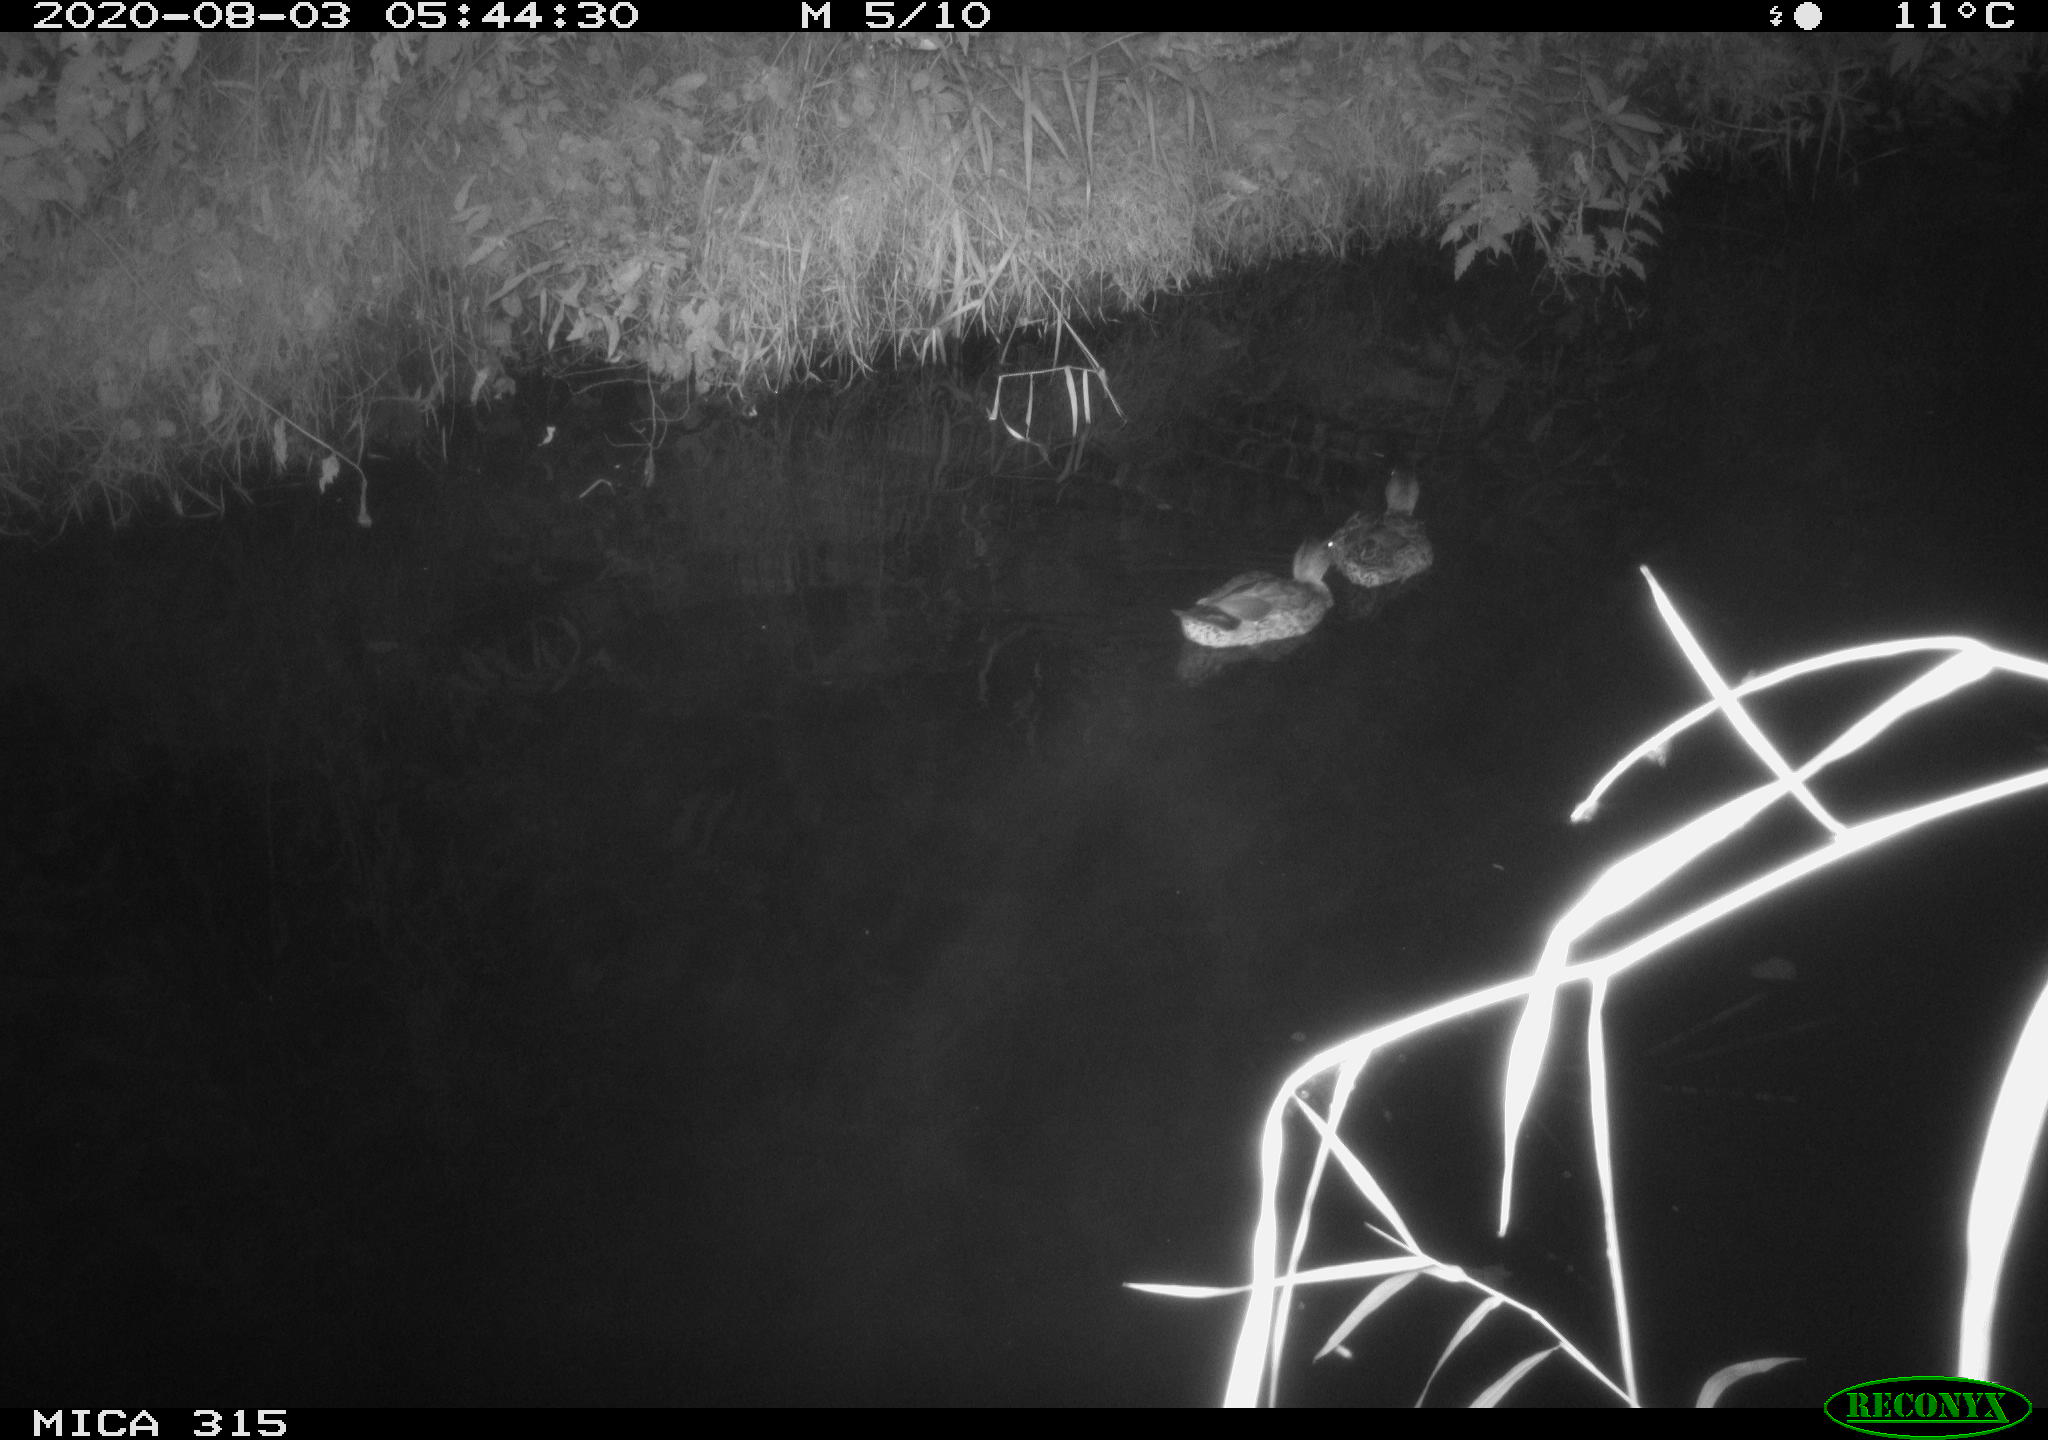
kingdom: Animalia
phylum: Chordata
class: Aves
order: Anseriformes
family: Anatidae
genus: Anas
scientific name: Anas platyrhynchos
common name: Mallard
